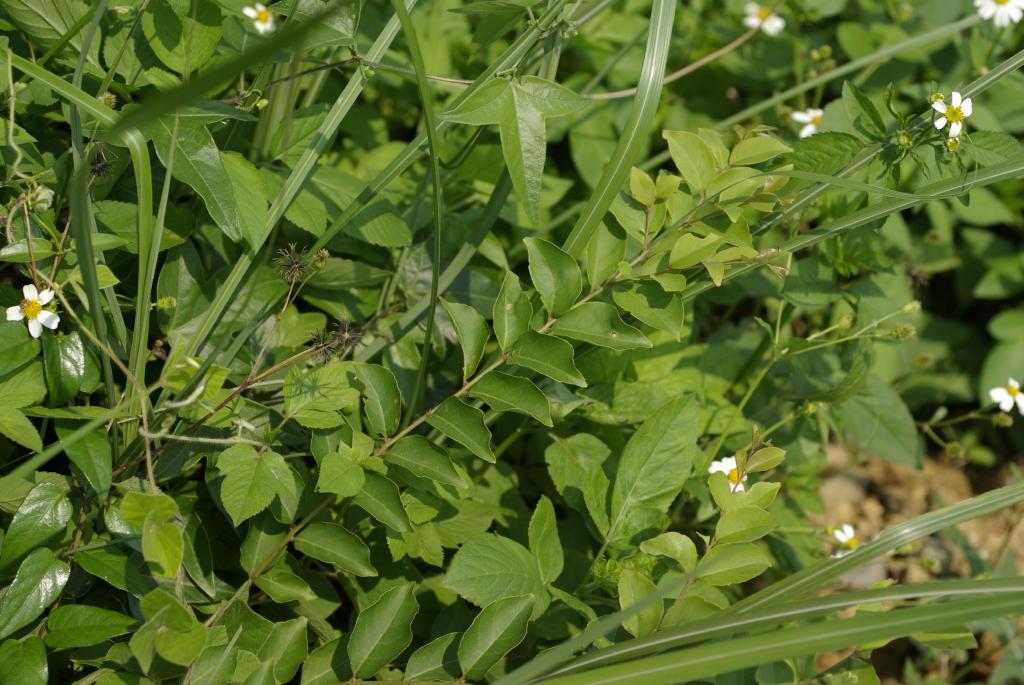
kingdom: Plantae
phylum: Tracheophyta
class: Magnoliopsida
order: Myrtales
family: Lythraceae
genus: Lagerstroemia
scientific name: Lagerstroemia subcostata
